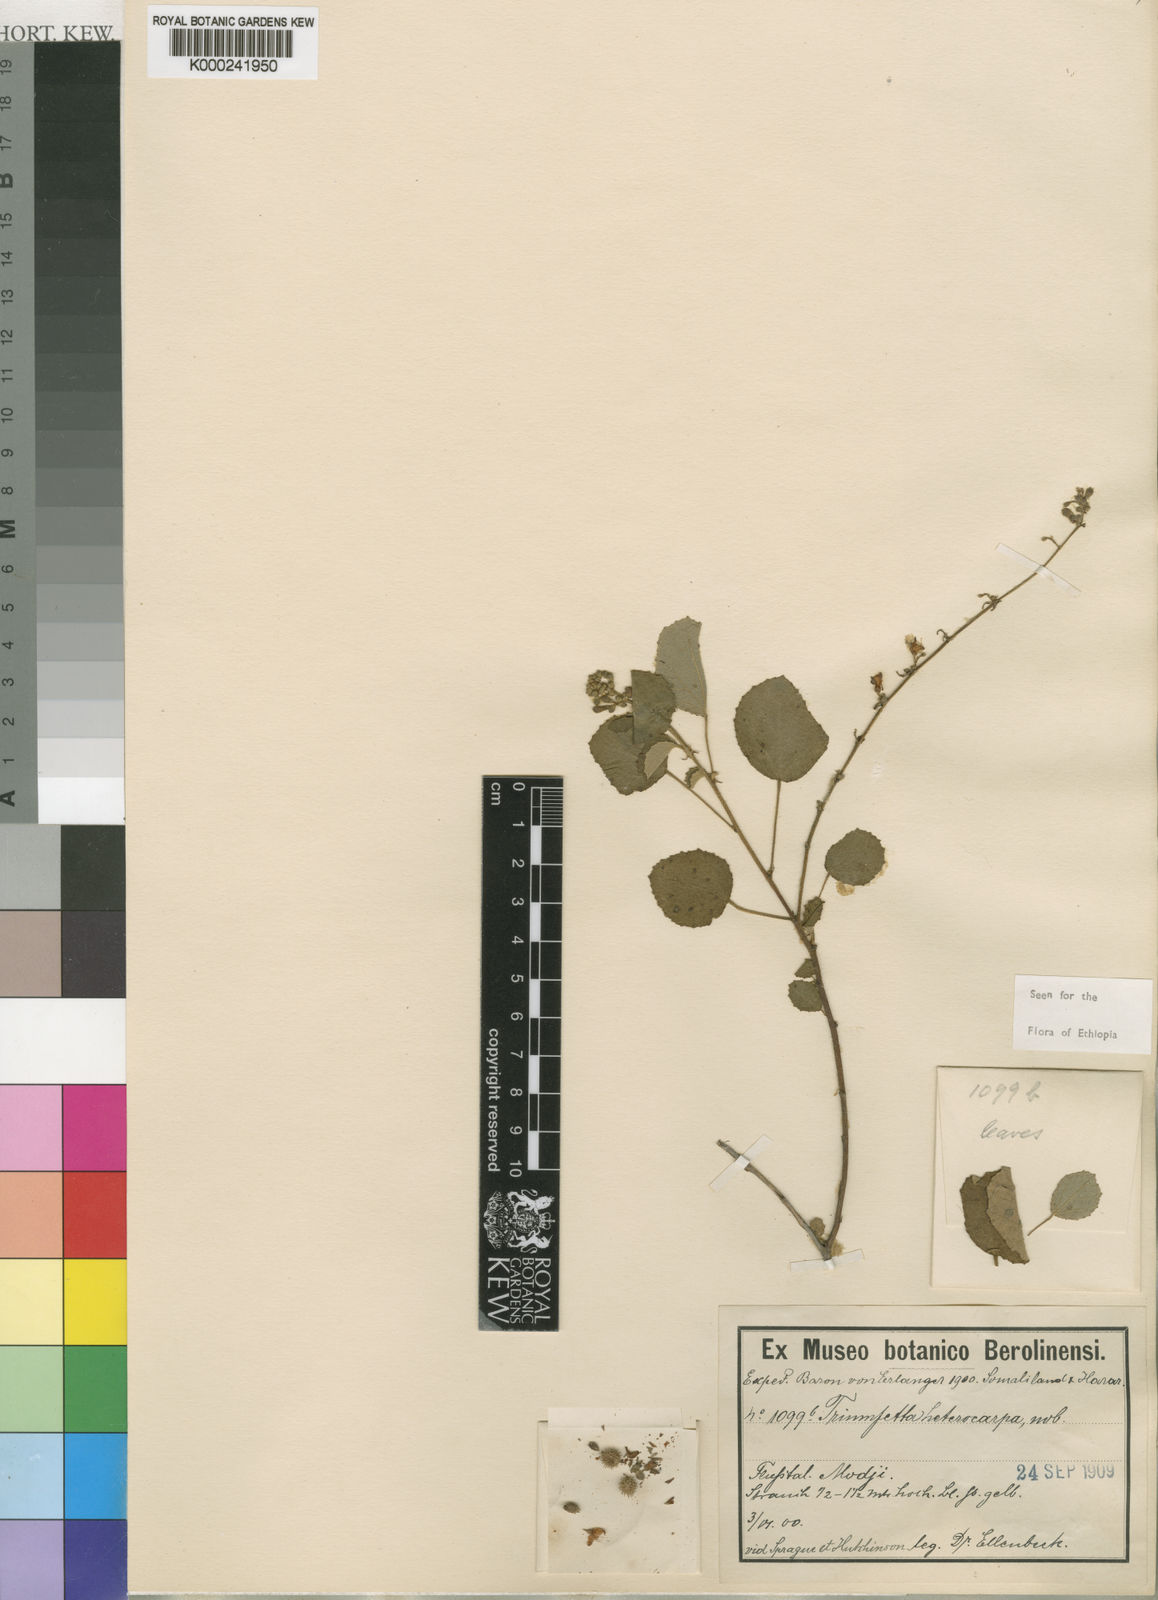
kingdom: Plantae
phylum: Tracheophyta
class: Magnoliopsida
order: Malvales
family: Malvaceae
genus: Triumfetta
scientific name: Triumfetta heterocarpa
